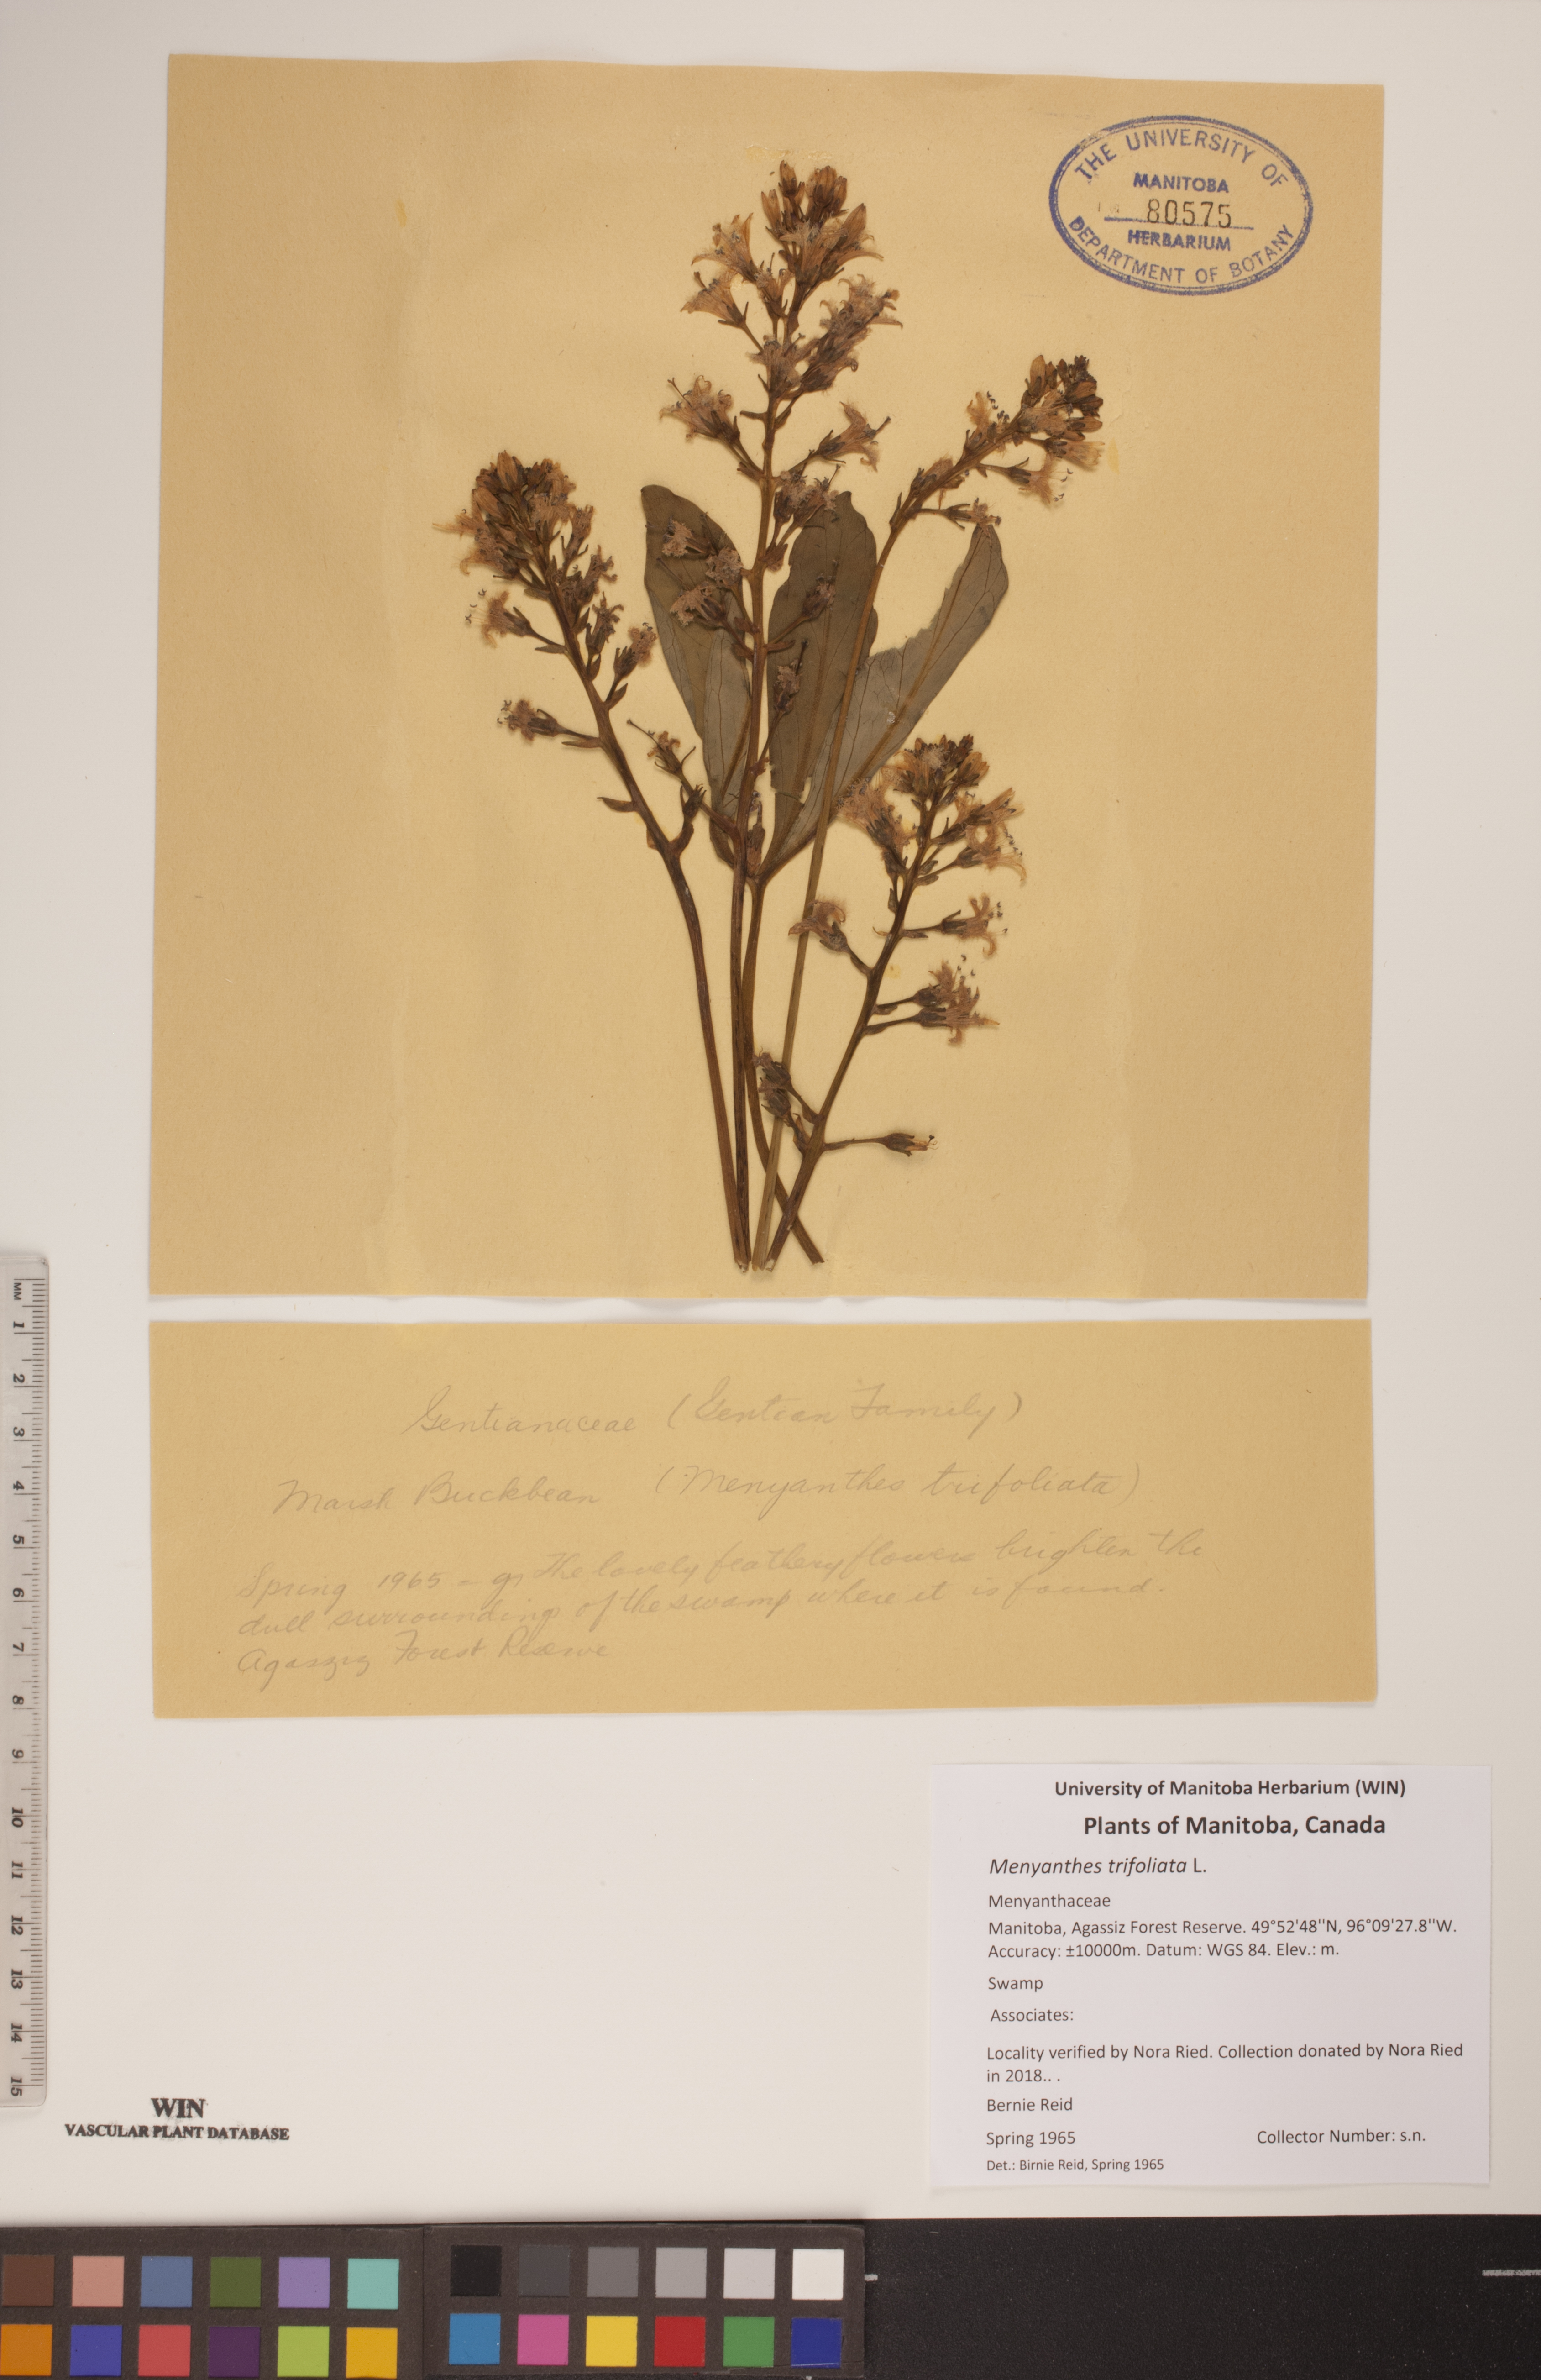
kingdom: Plantae
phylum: Tracheophyta
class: Magnoliopsida
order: Asterales
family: Menyanthaceae
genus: Menyanthes
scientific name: Menyanthes trifoliata
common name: Bogbean
